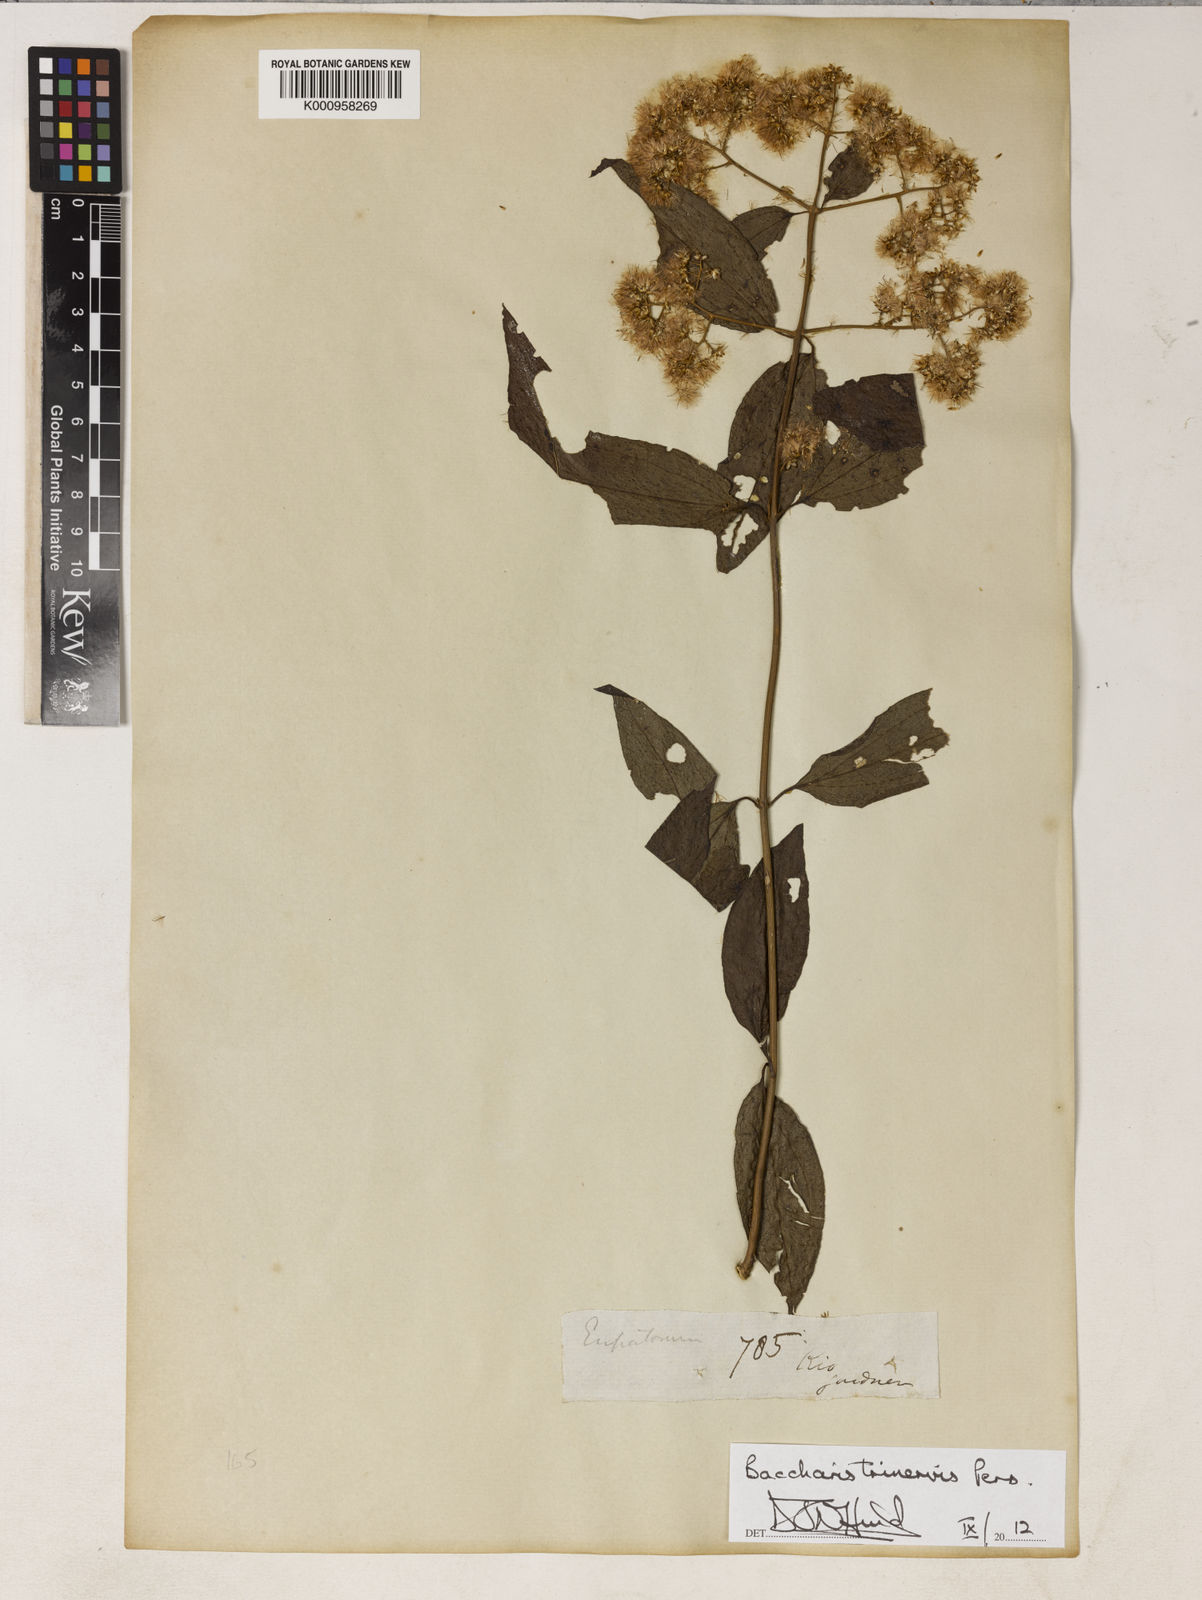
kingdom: Plantae
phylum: Tracheophyta
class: Magnoliopsida
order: Asterales
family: Asteraceae
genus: Baccharis
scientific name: Baccharis trinervis
